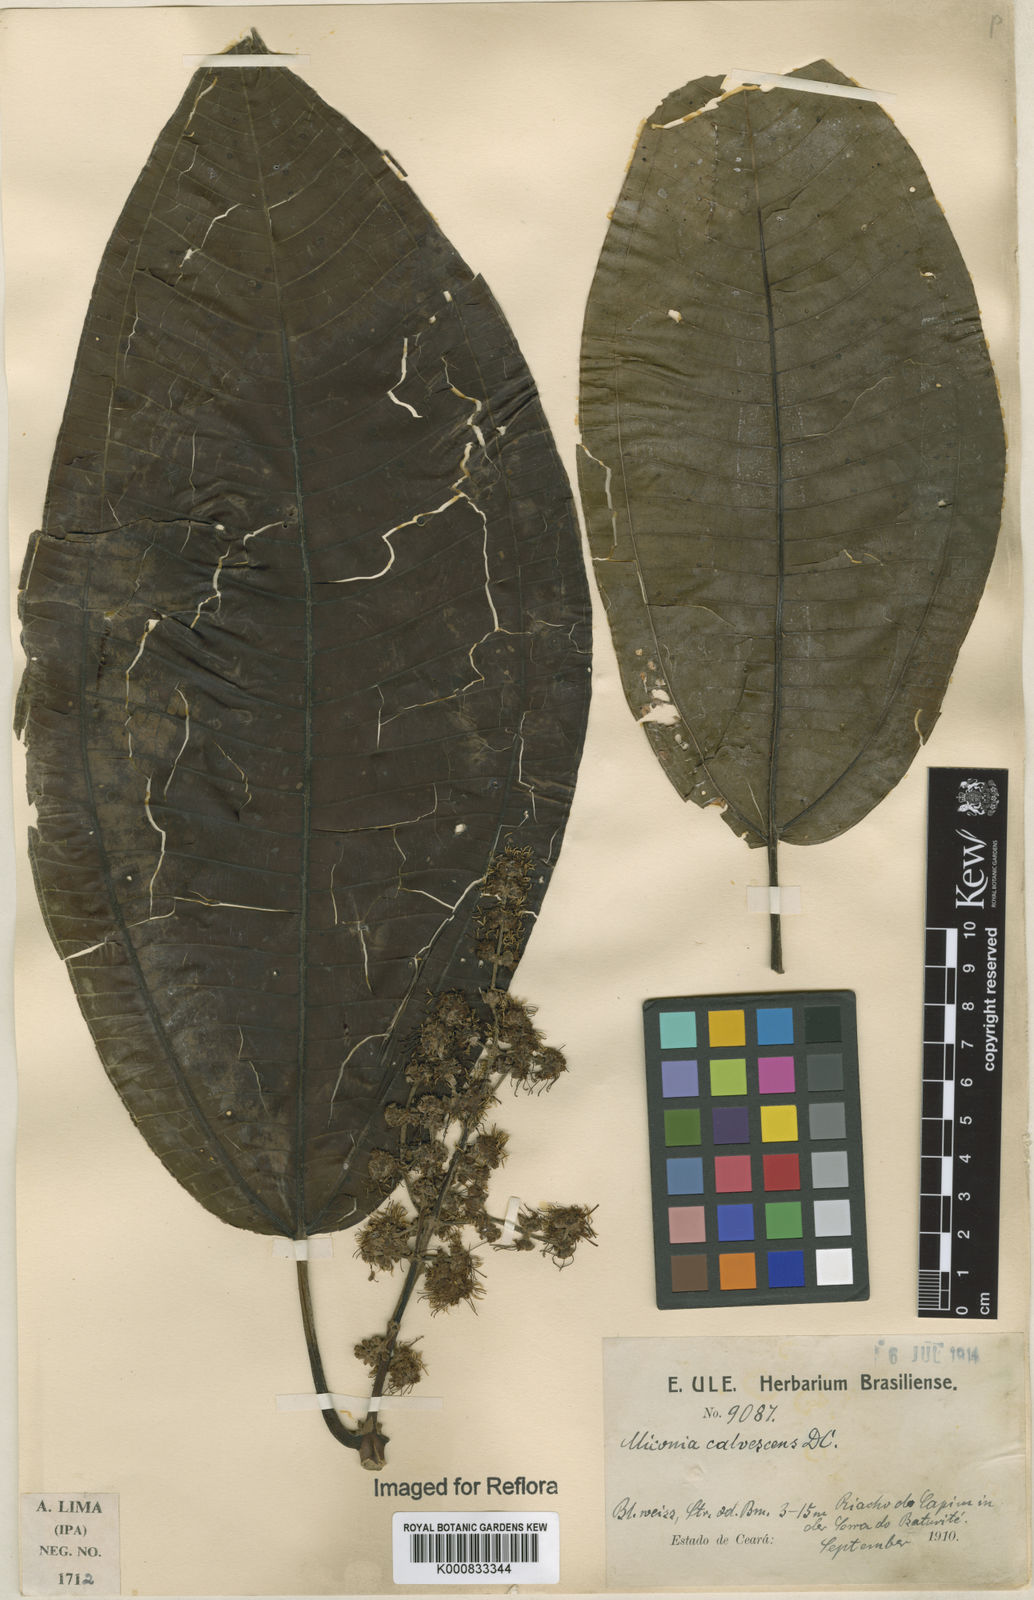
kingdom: Plantae
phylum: Tracheophyta
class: Magnoliopsida
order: Myrtales
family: Melastomataceae
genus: Miconia
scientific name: Miconia calvescens
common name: Purple plague
